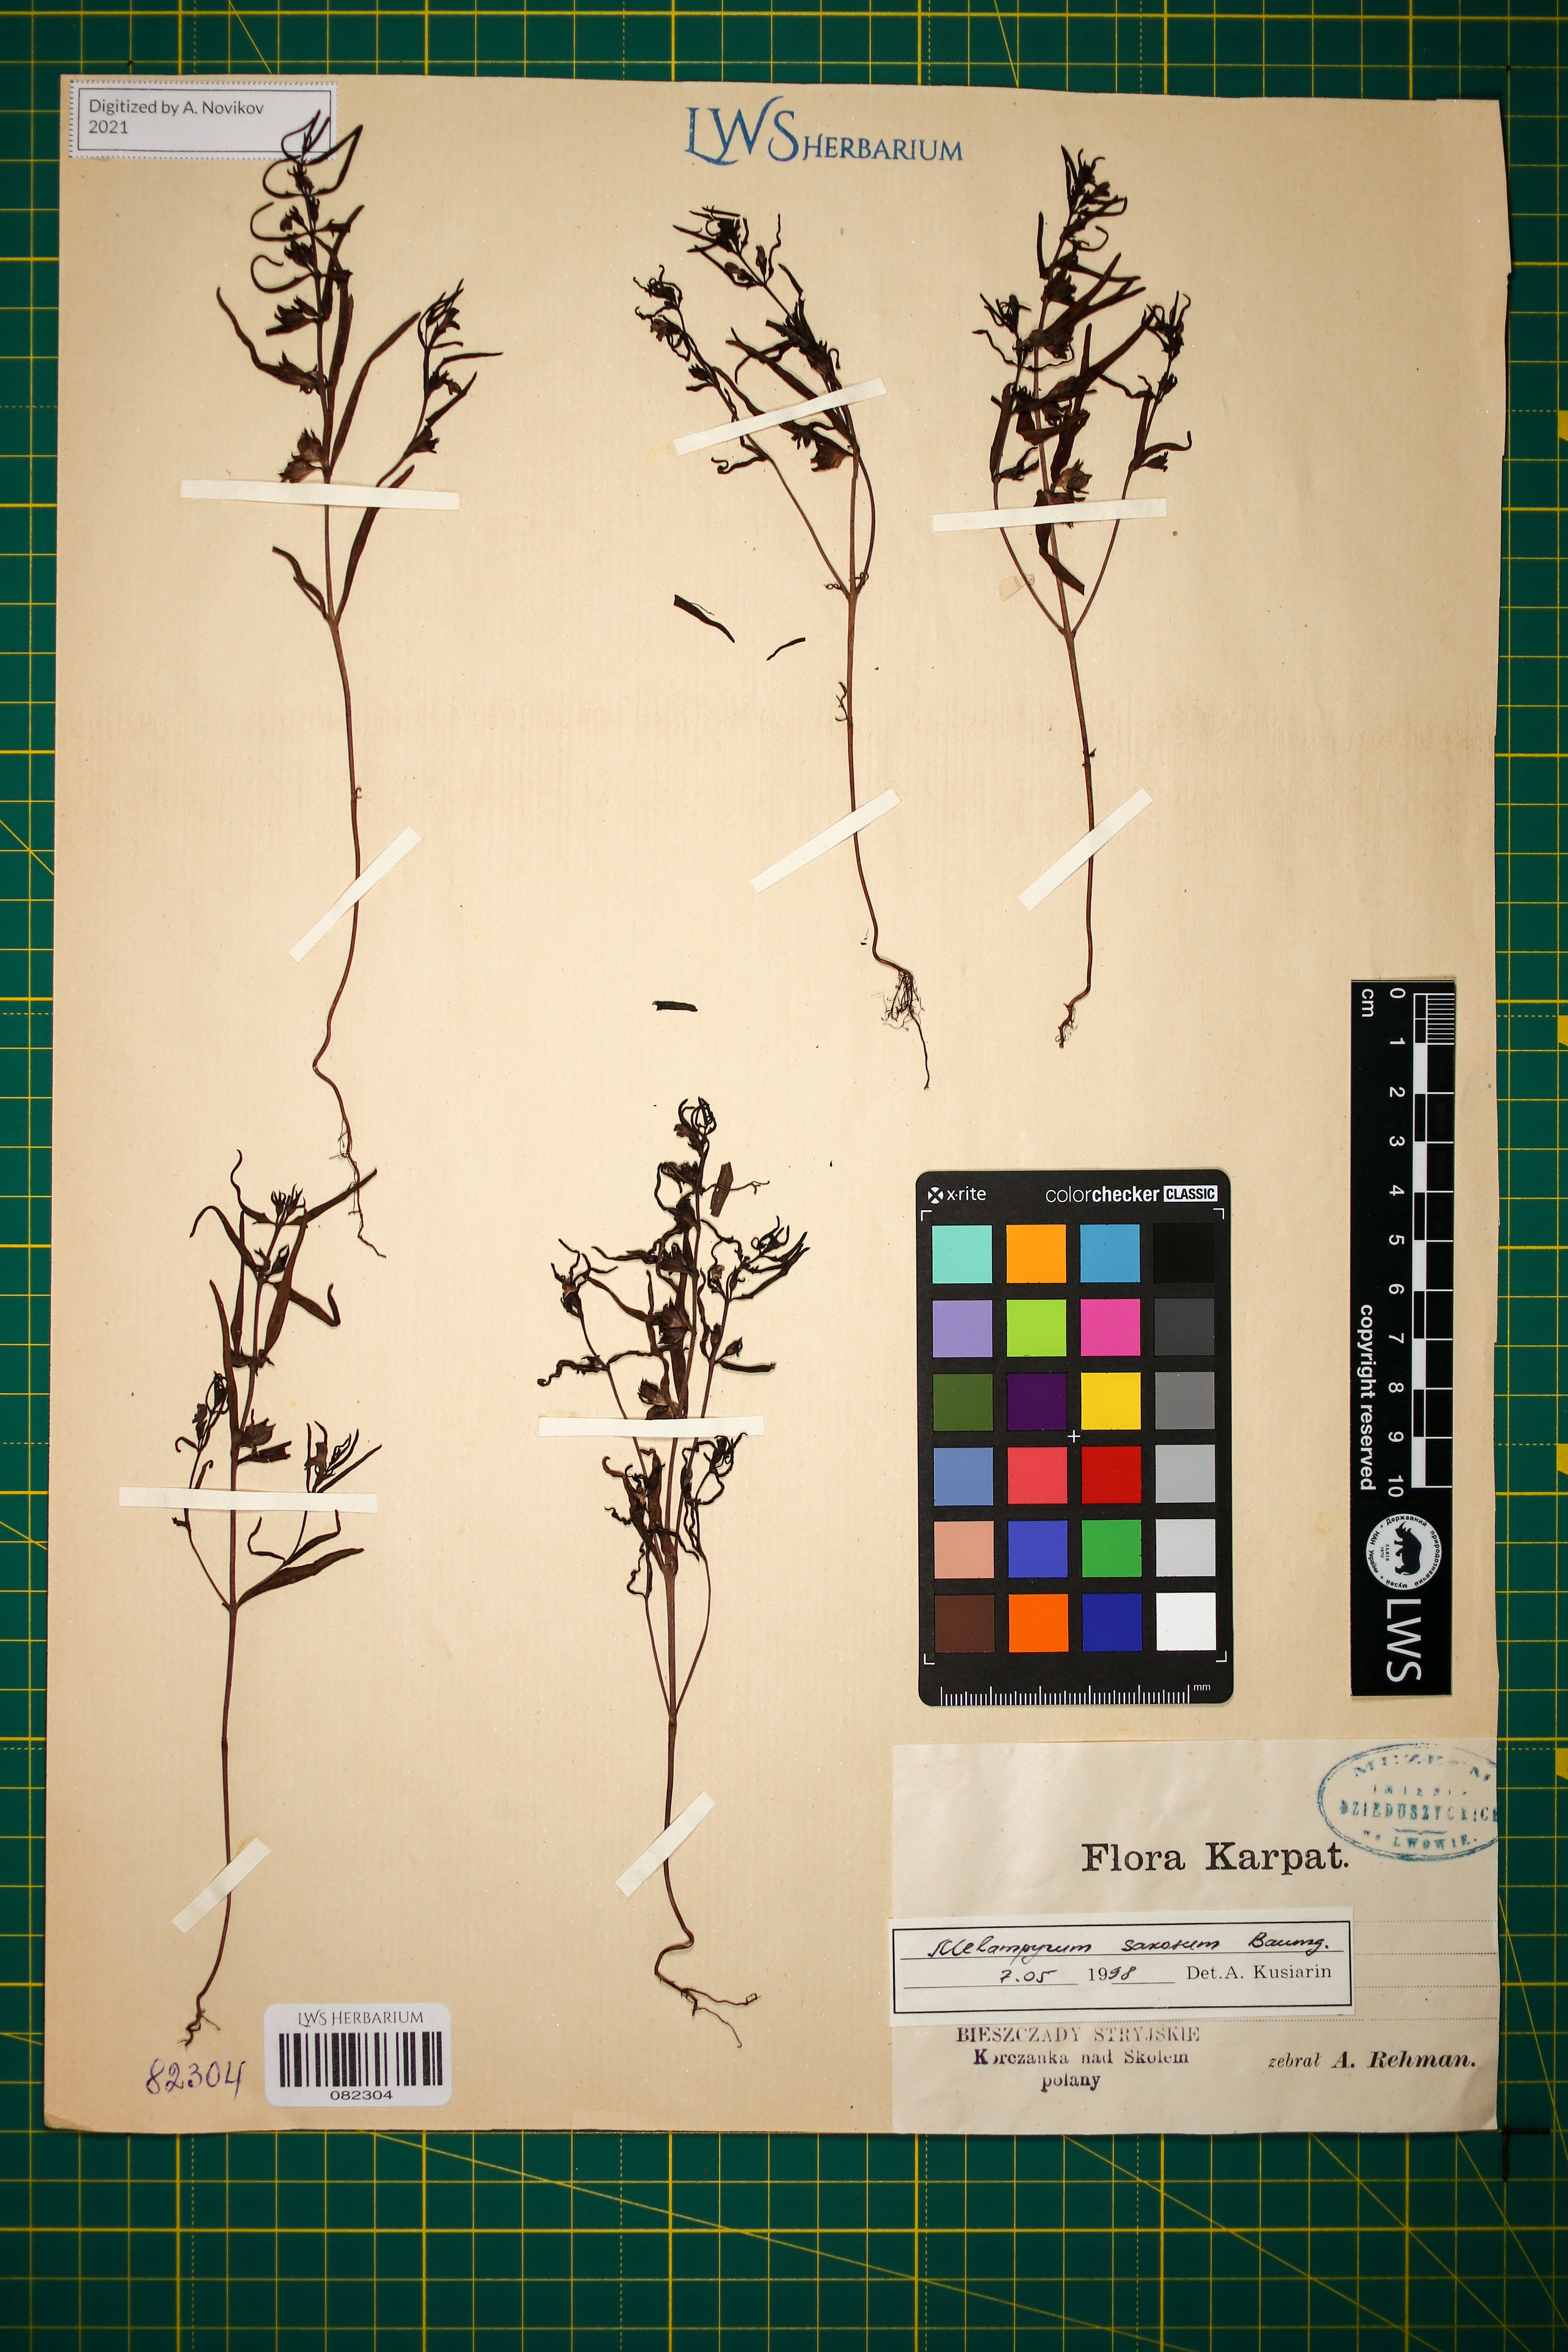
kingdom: Plantae
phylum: Tracheophyta
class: Magnoliopsida
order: Lamiales
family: Orobanchaceae
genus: Melampyrum
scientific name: Melampyrum saxosum
